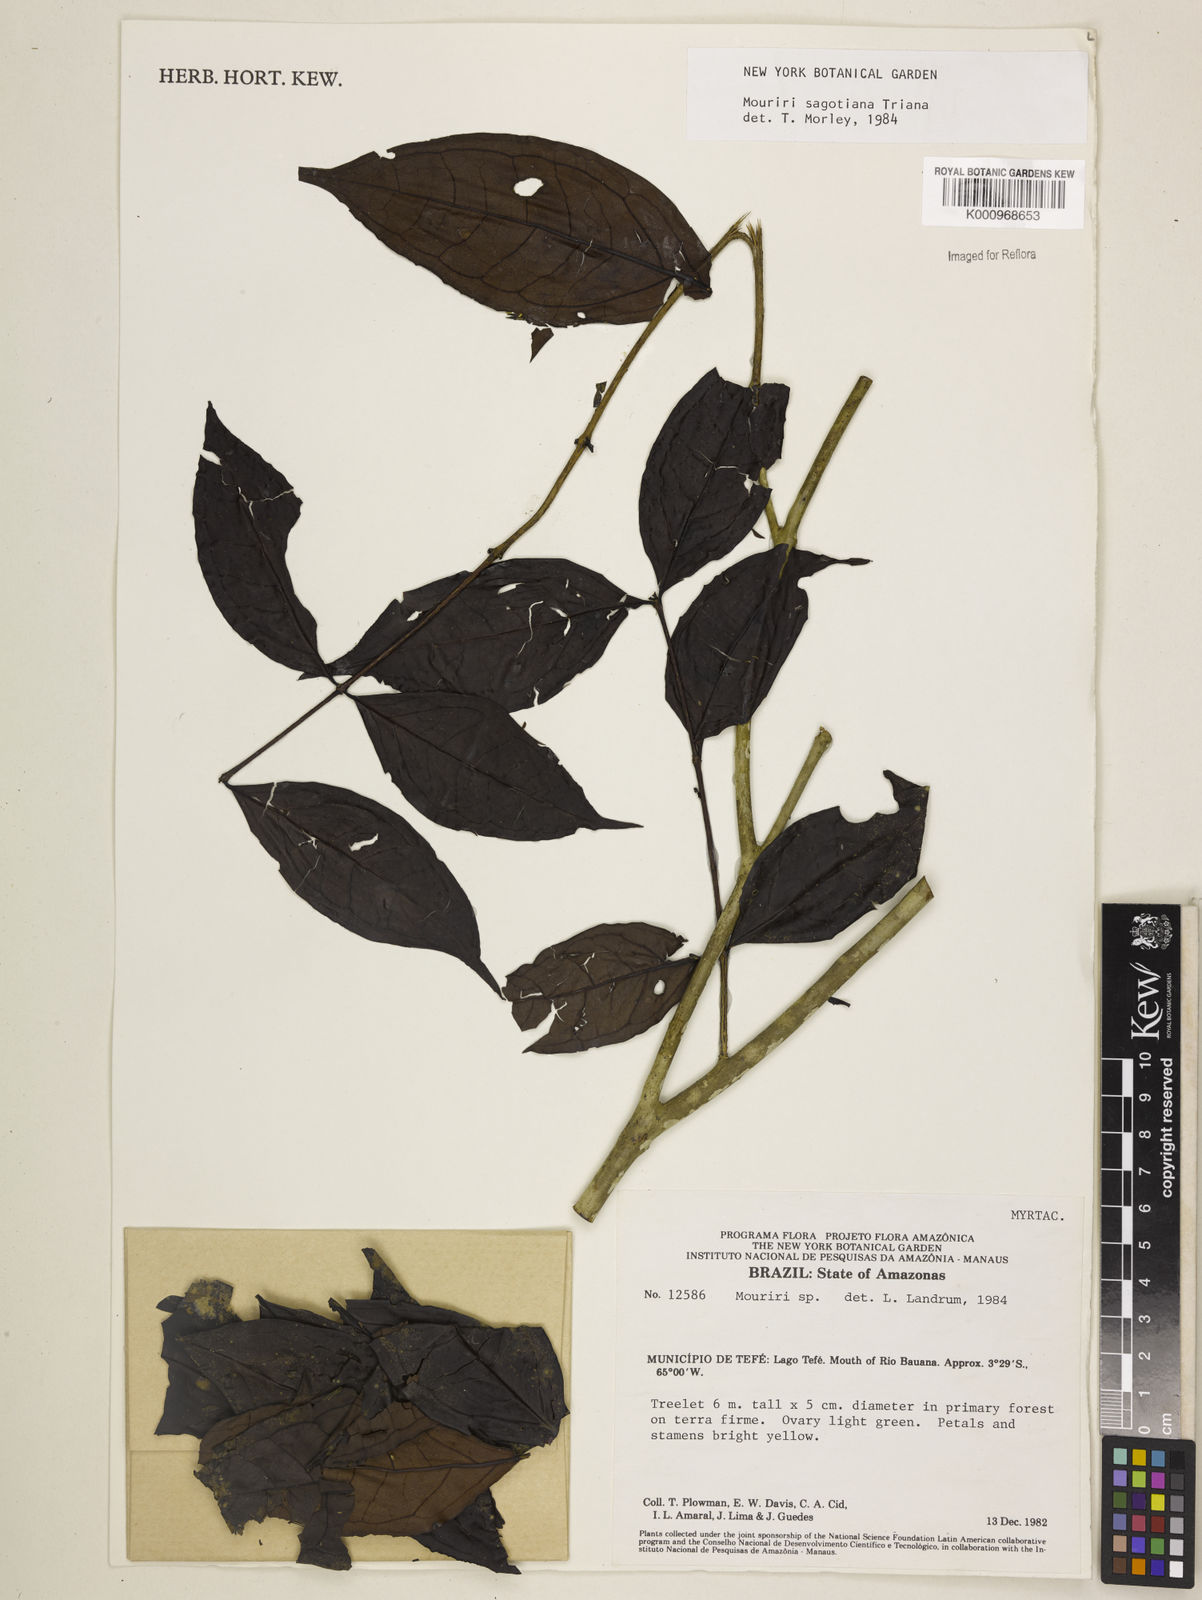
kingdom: Plantae
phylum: Tracheophyta
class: Magnoliopsida
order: Myrtales
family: Melastomataceae
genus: Mouriri
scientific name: Mouriri sagotiana
